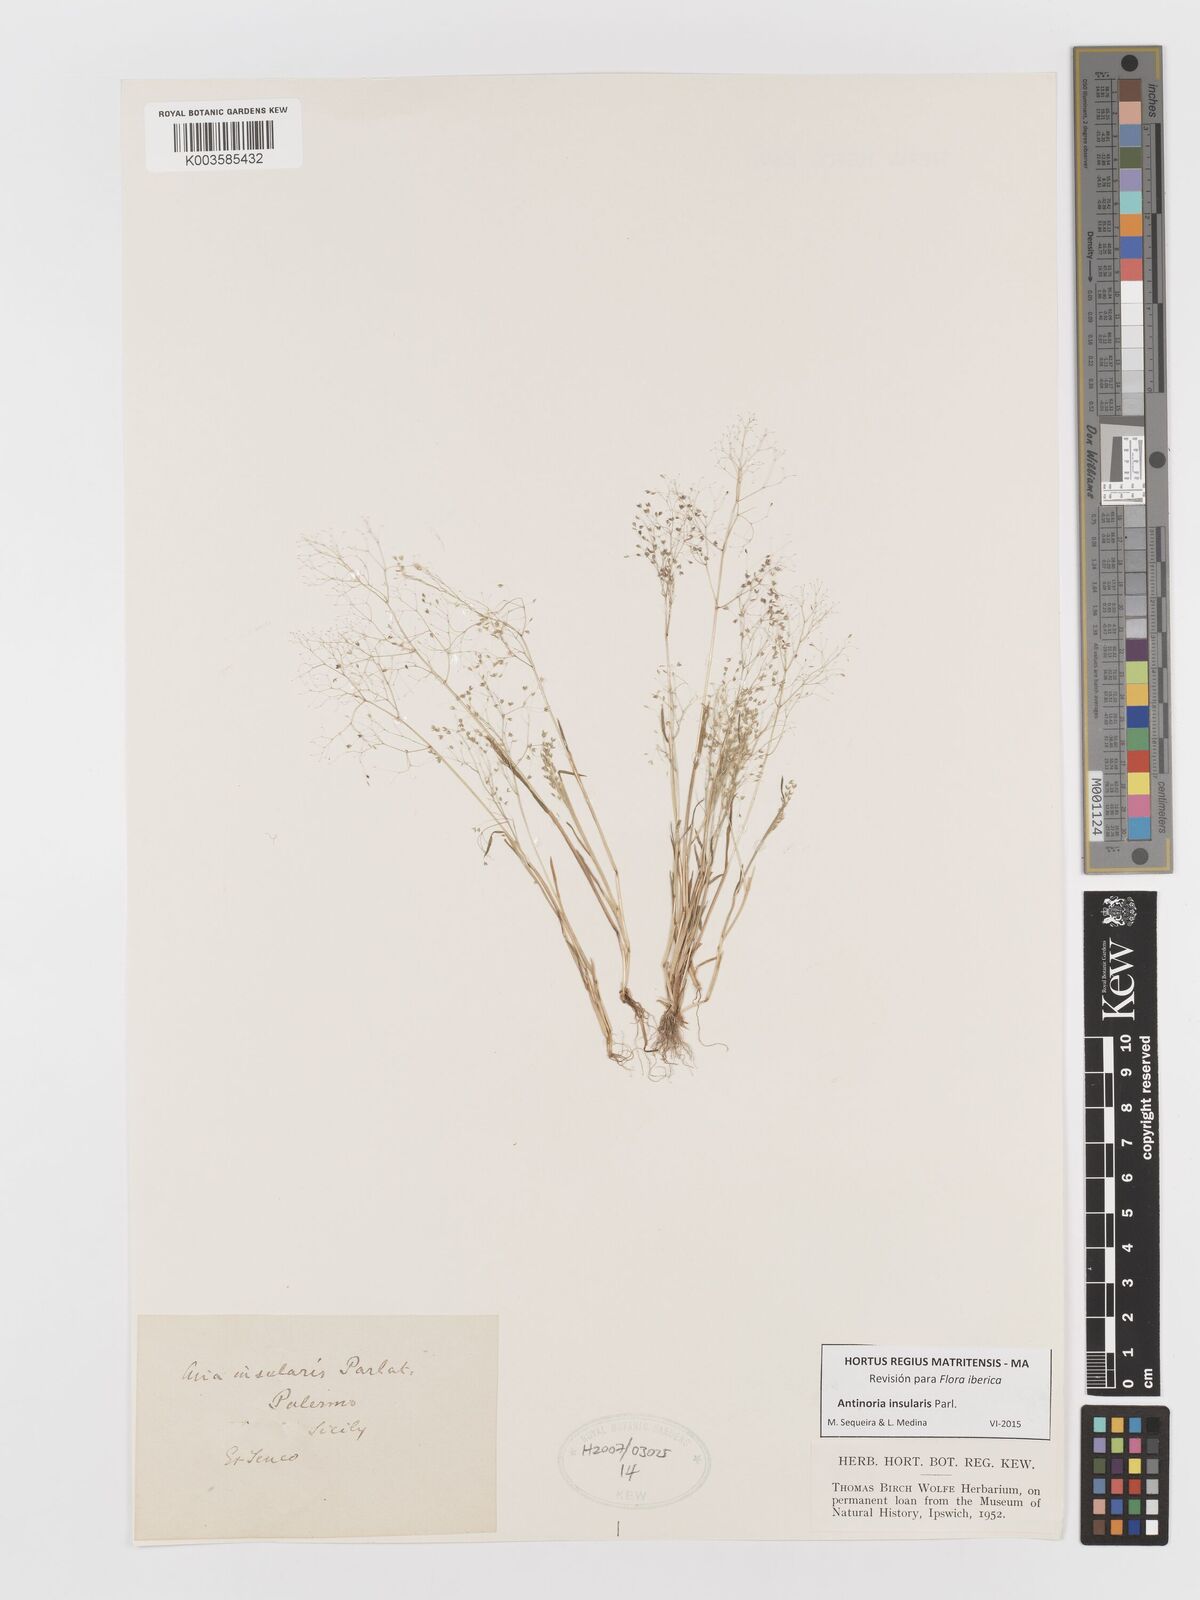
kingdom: Plantae
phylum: Tracheophyta
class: Liliopsida
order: Poales
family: Poaceae
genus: Antinoria
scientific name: Antinoria insularis
